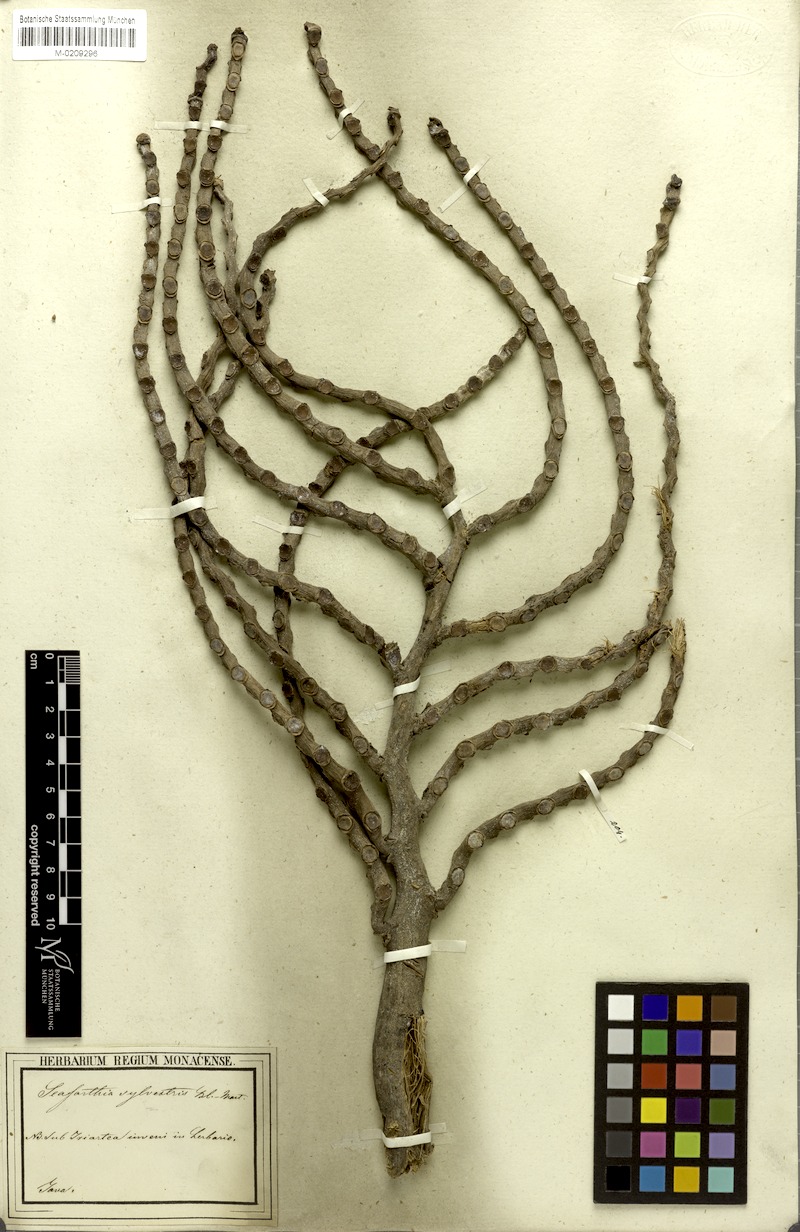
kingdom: Plantae
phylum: Tracheophyta
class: Liliopsida
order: Arecales
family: Arecaceae
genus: Pinanga
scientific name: Pinanga javana
